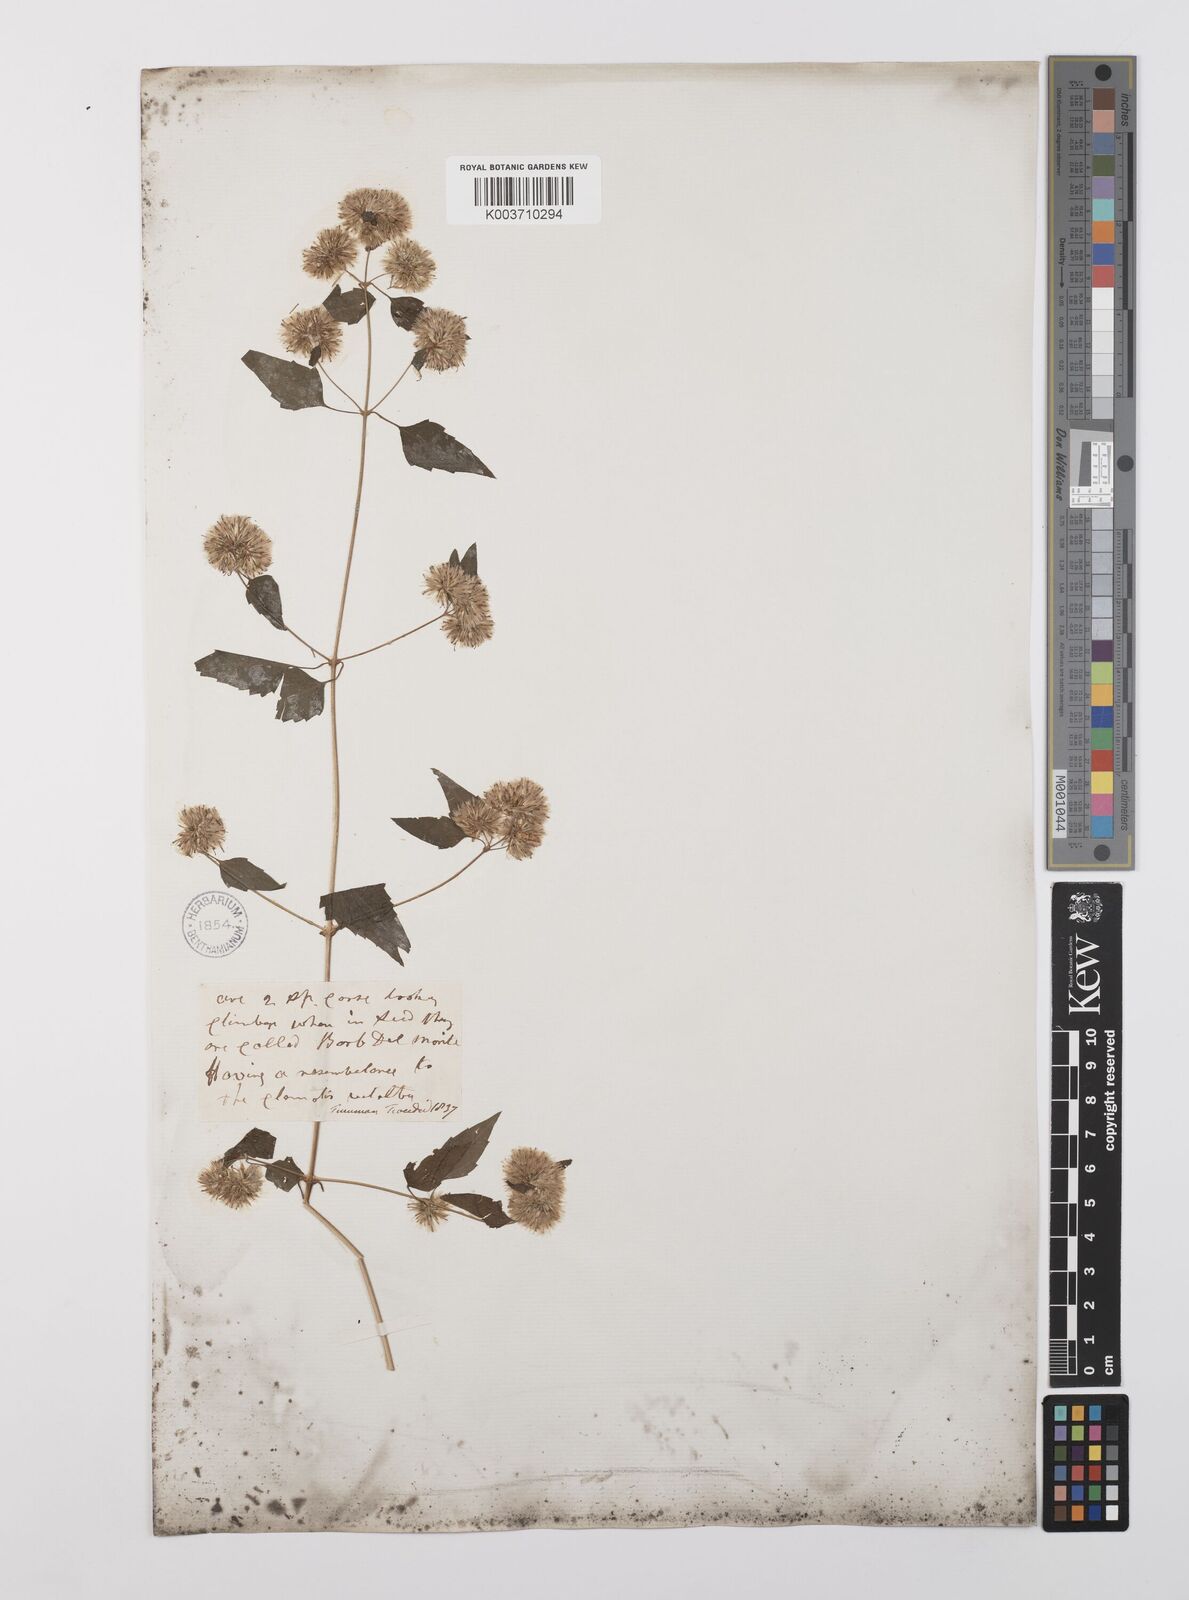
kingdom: Plantae
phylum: Tracheophyta
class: Magnoliopsida
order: Asterales
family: Asteraceae
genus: Austrobrickellia
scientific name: Austrobrickellia arnottii
